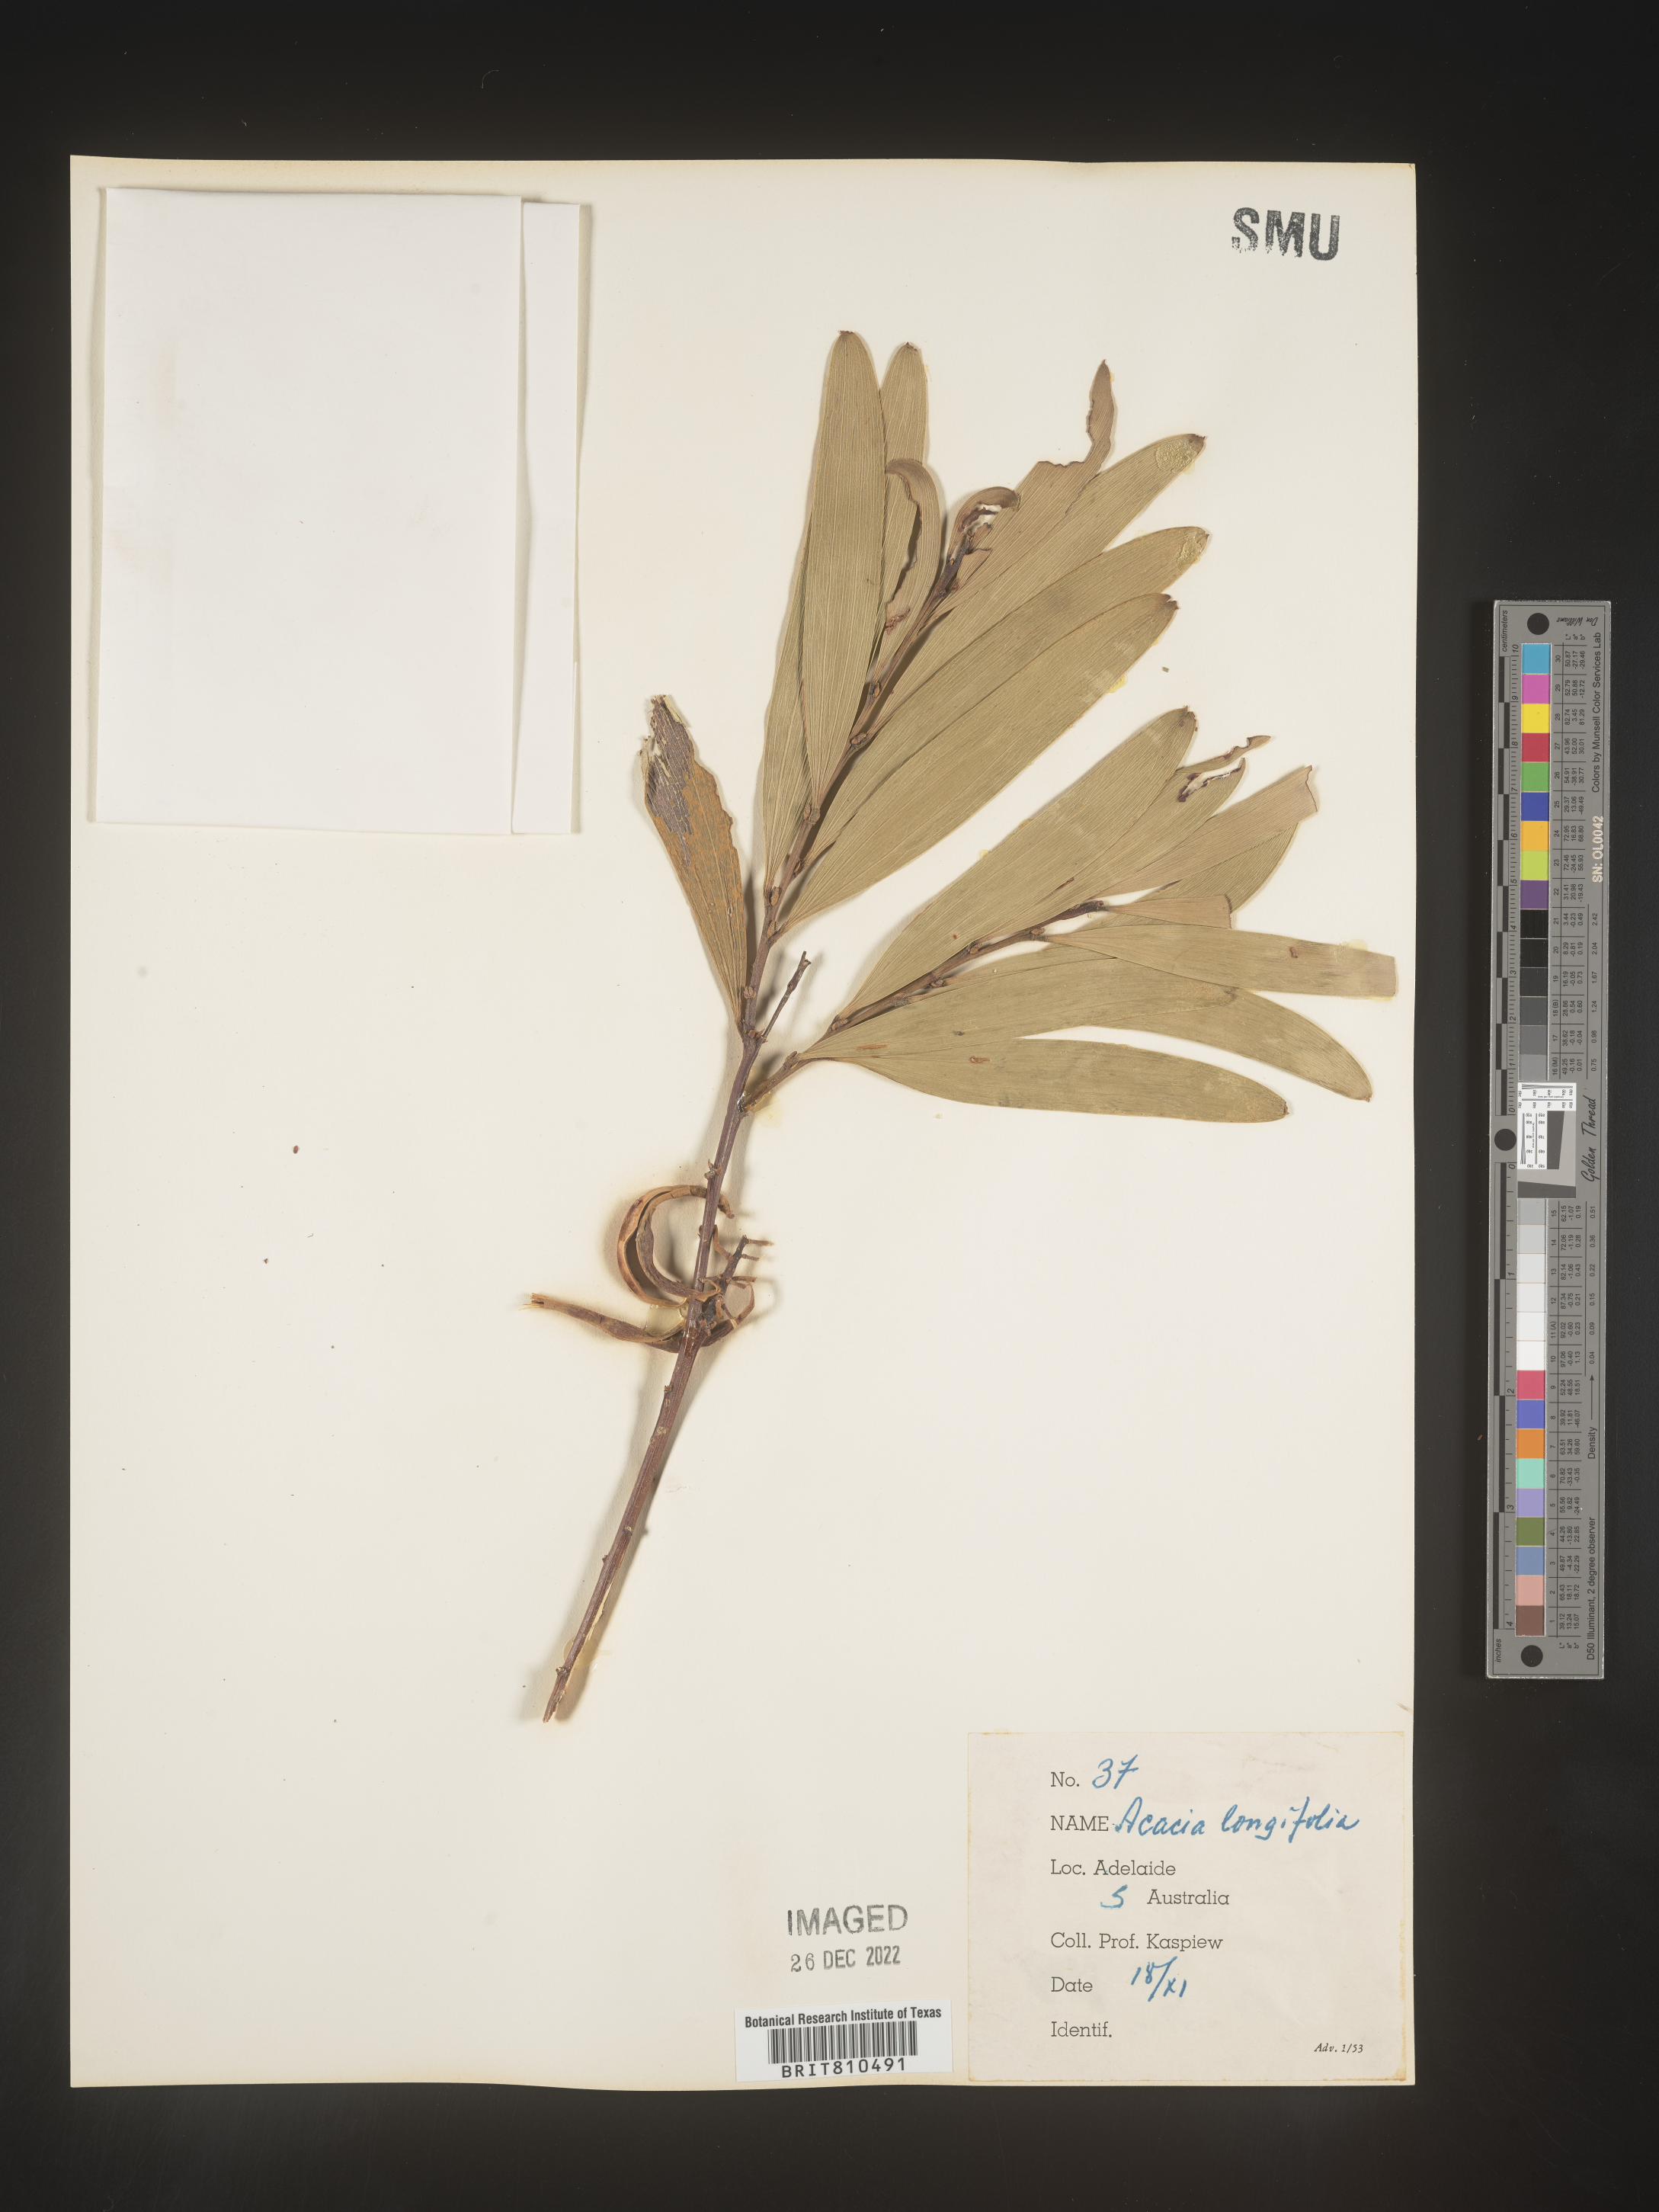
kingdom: Plantae
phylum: Tracheophyta
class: Magnoliopsida
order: Fabales
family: Fabaceae
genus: Acacia
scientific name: Acacia
